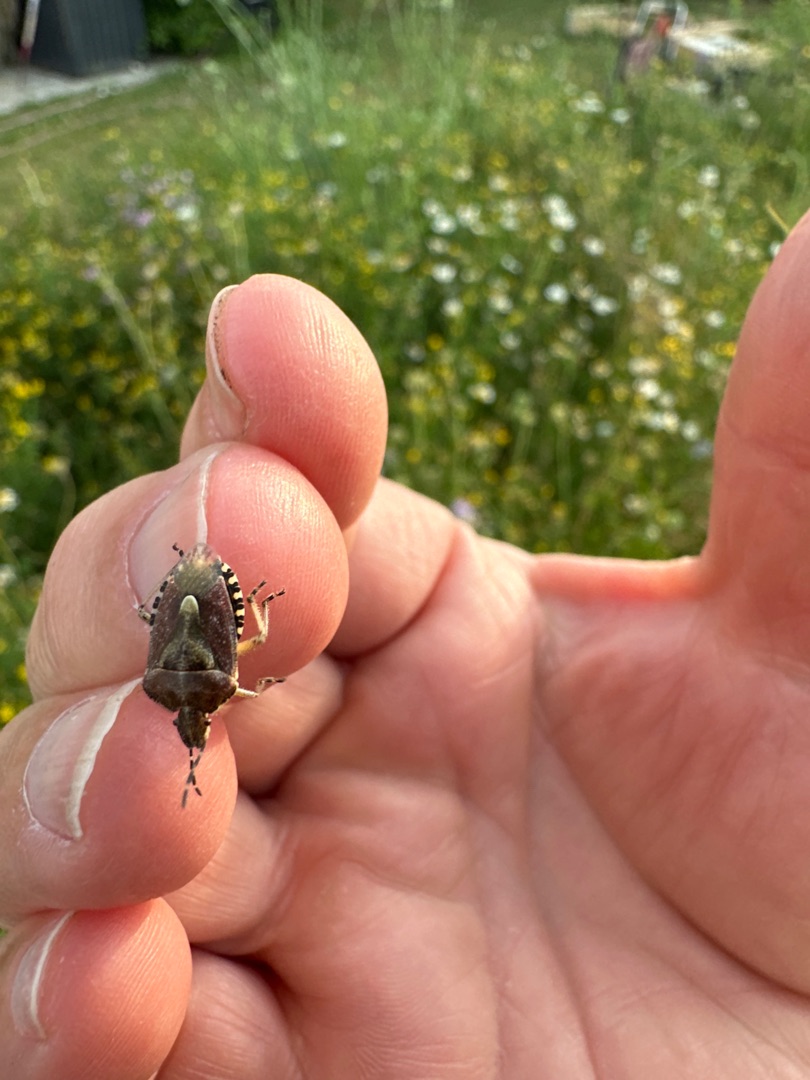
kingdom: Animalia
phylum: Arthropoda
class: Insecta
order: Hemiptera
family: Pentatomidae
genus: Dolycoris
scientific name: Dolycoris baccarum
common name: Almindelig bærtæge
